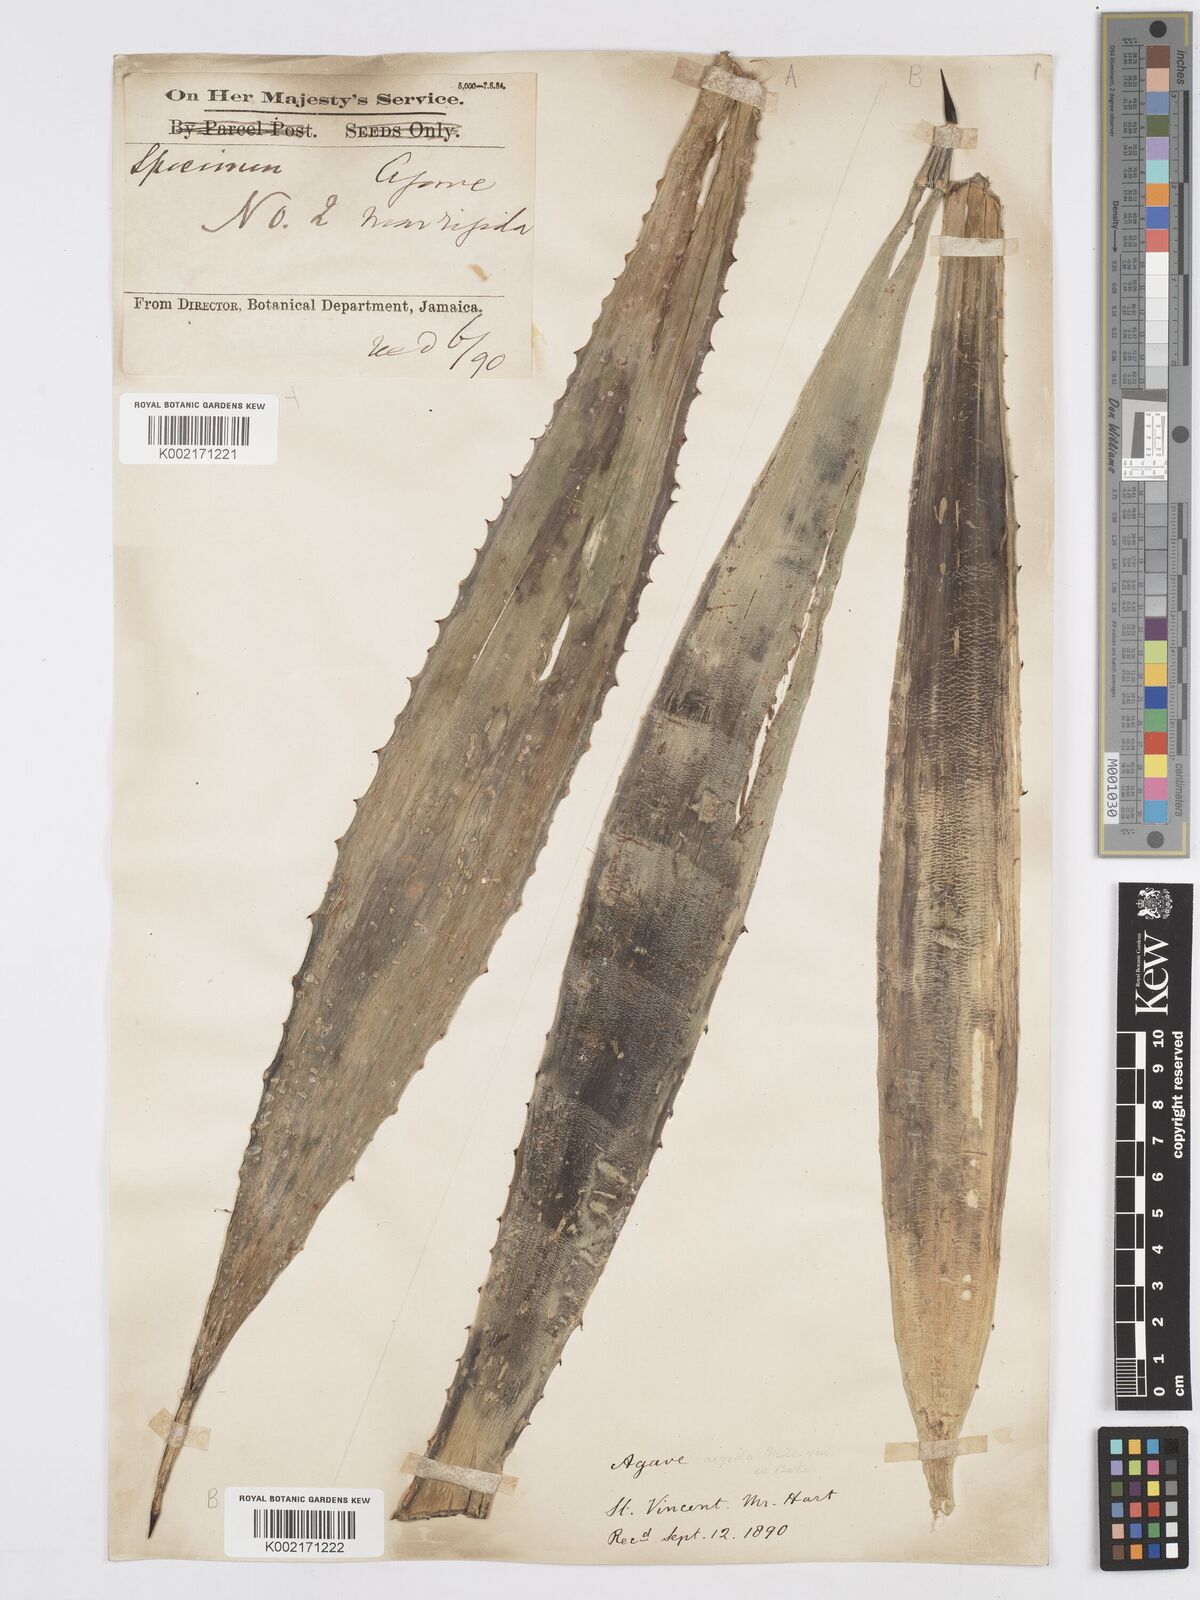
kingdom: Plantae
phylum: Tracheophyta
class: Liliopsida
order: Asparagales
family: Asparagaceae
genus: Agave
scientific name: Agave angustifolia
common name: Mescal agave
